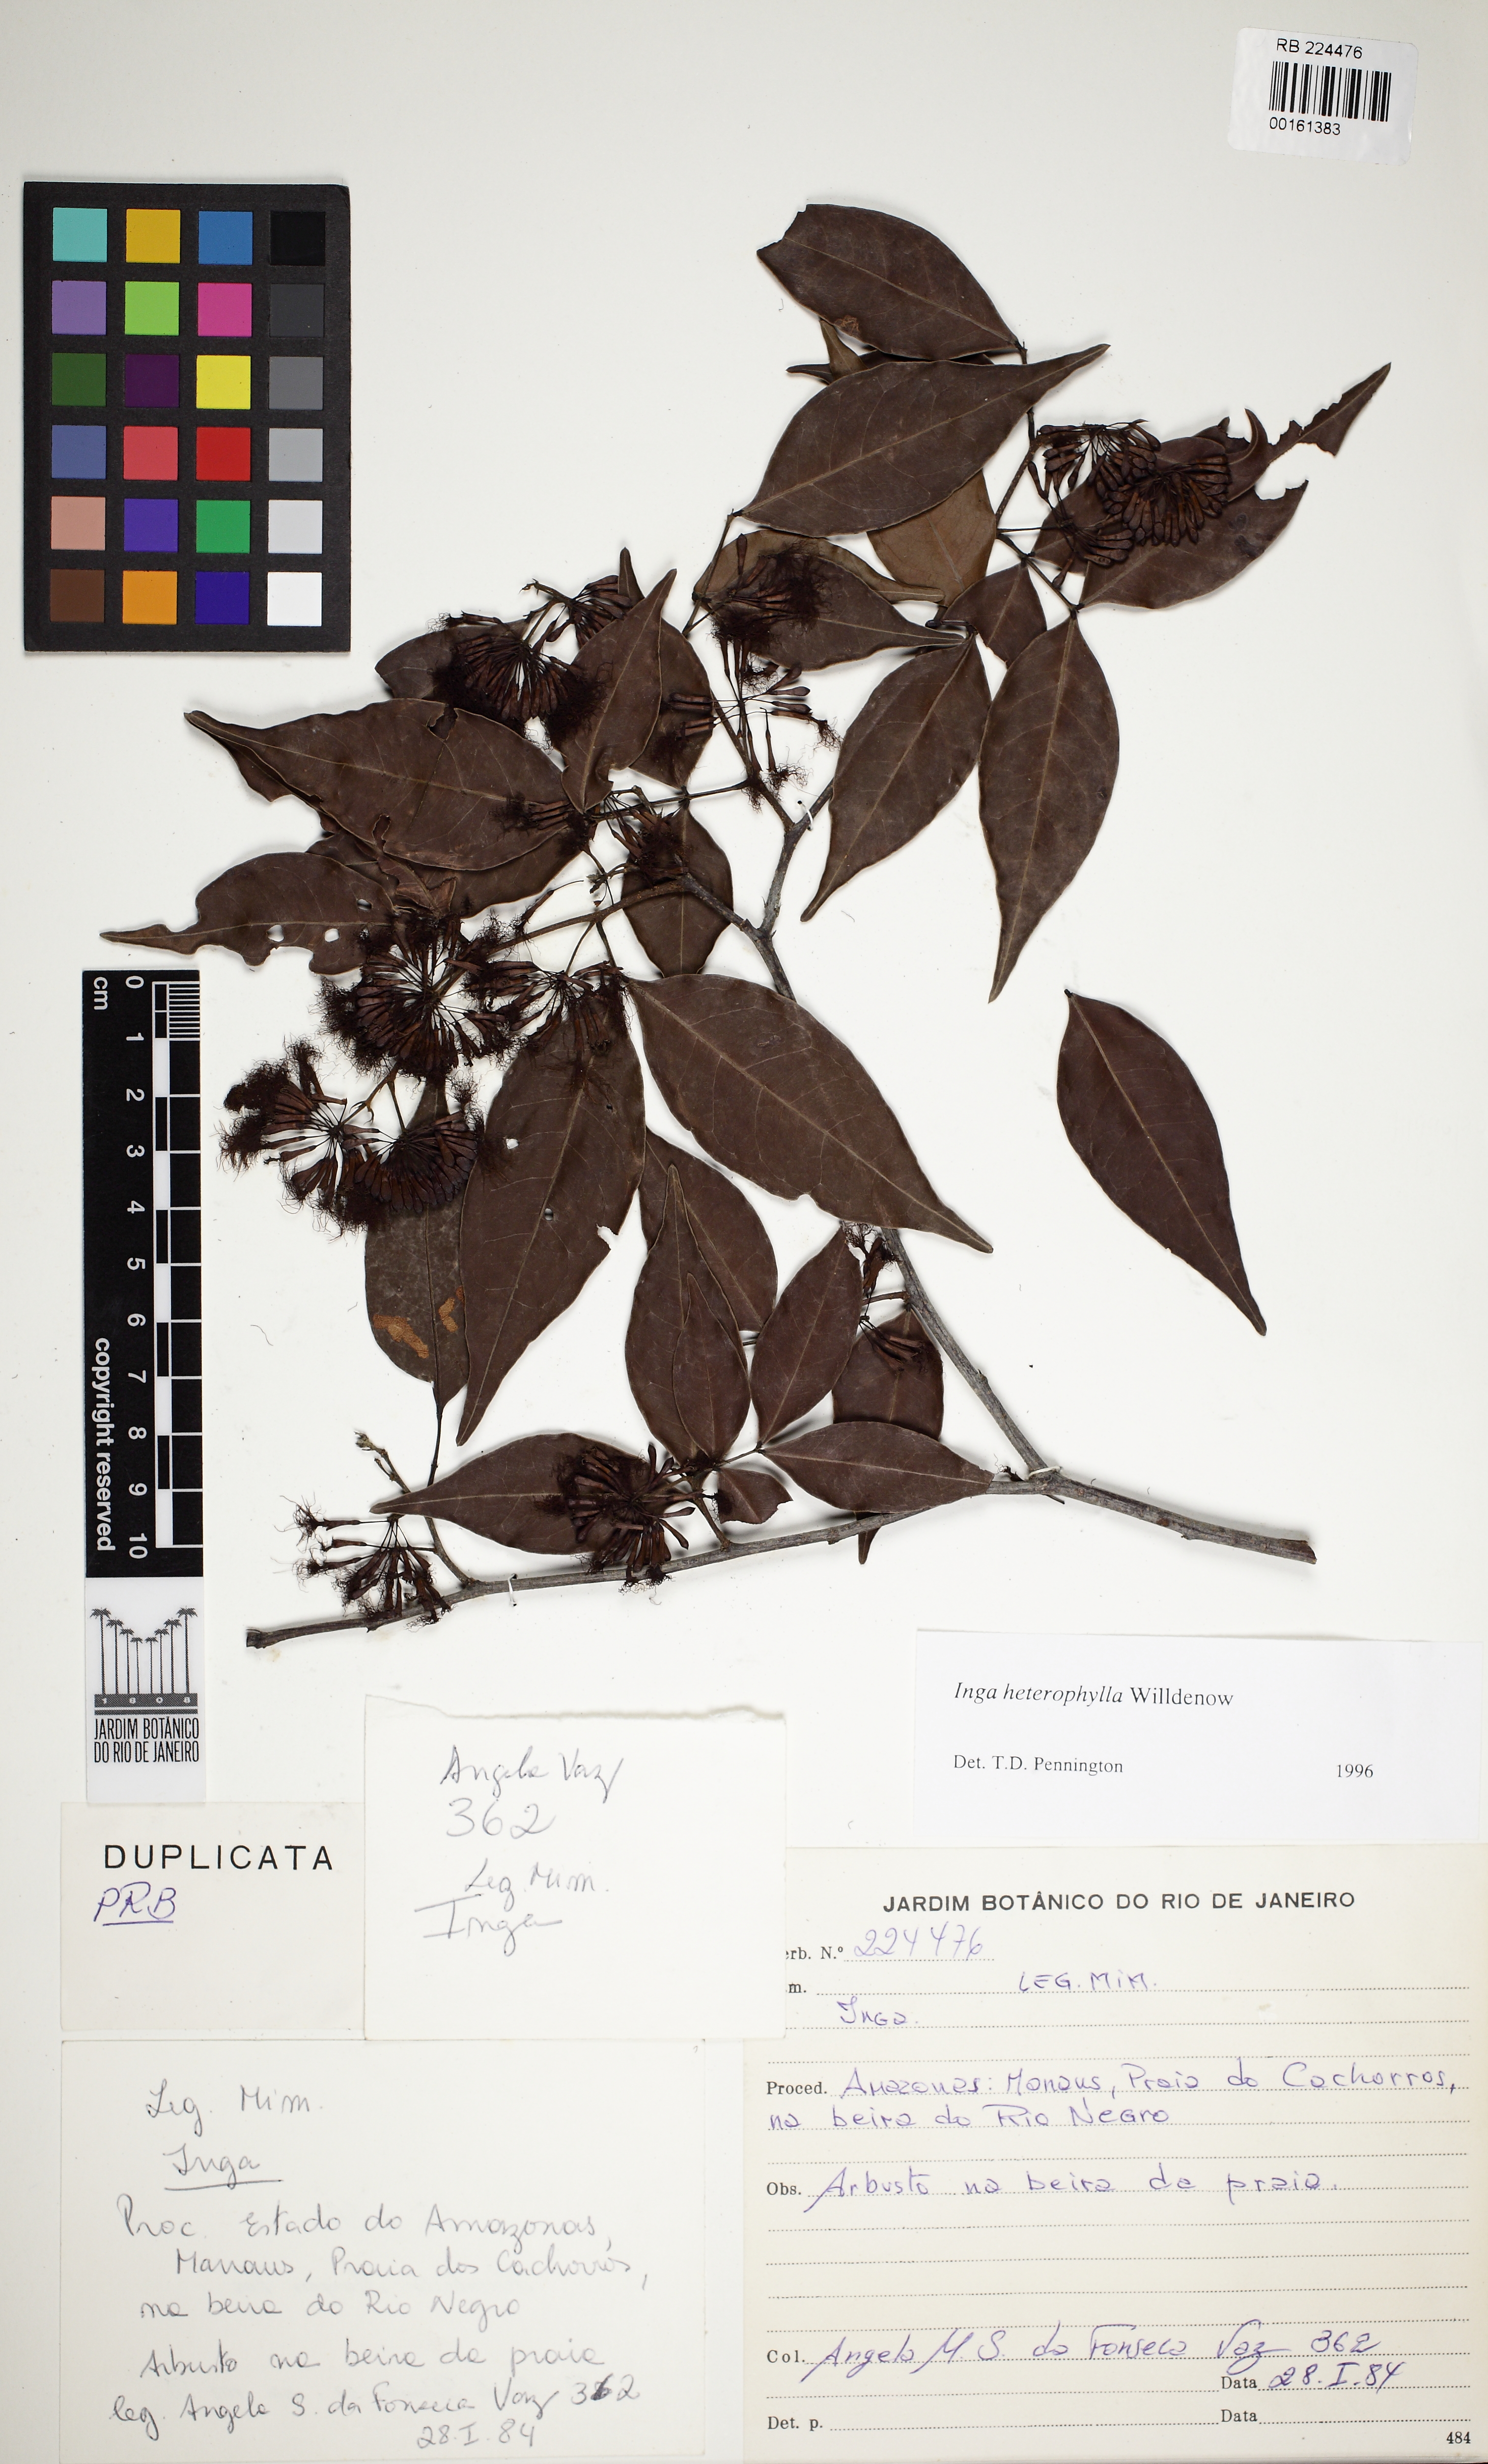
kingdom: Plantae
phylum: Tracheophyta
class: Magnoliopsida
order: Fabales
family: Fabaceae
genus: Inga
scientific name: Inga heterophylla
